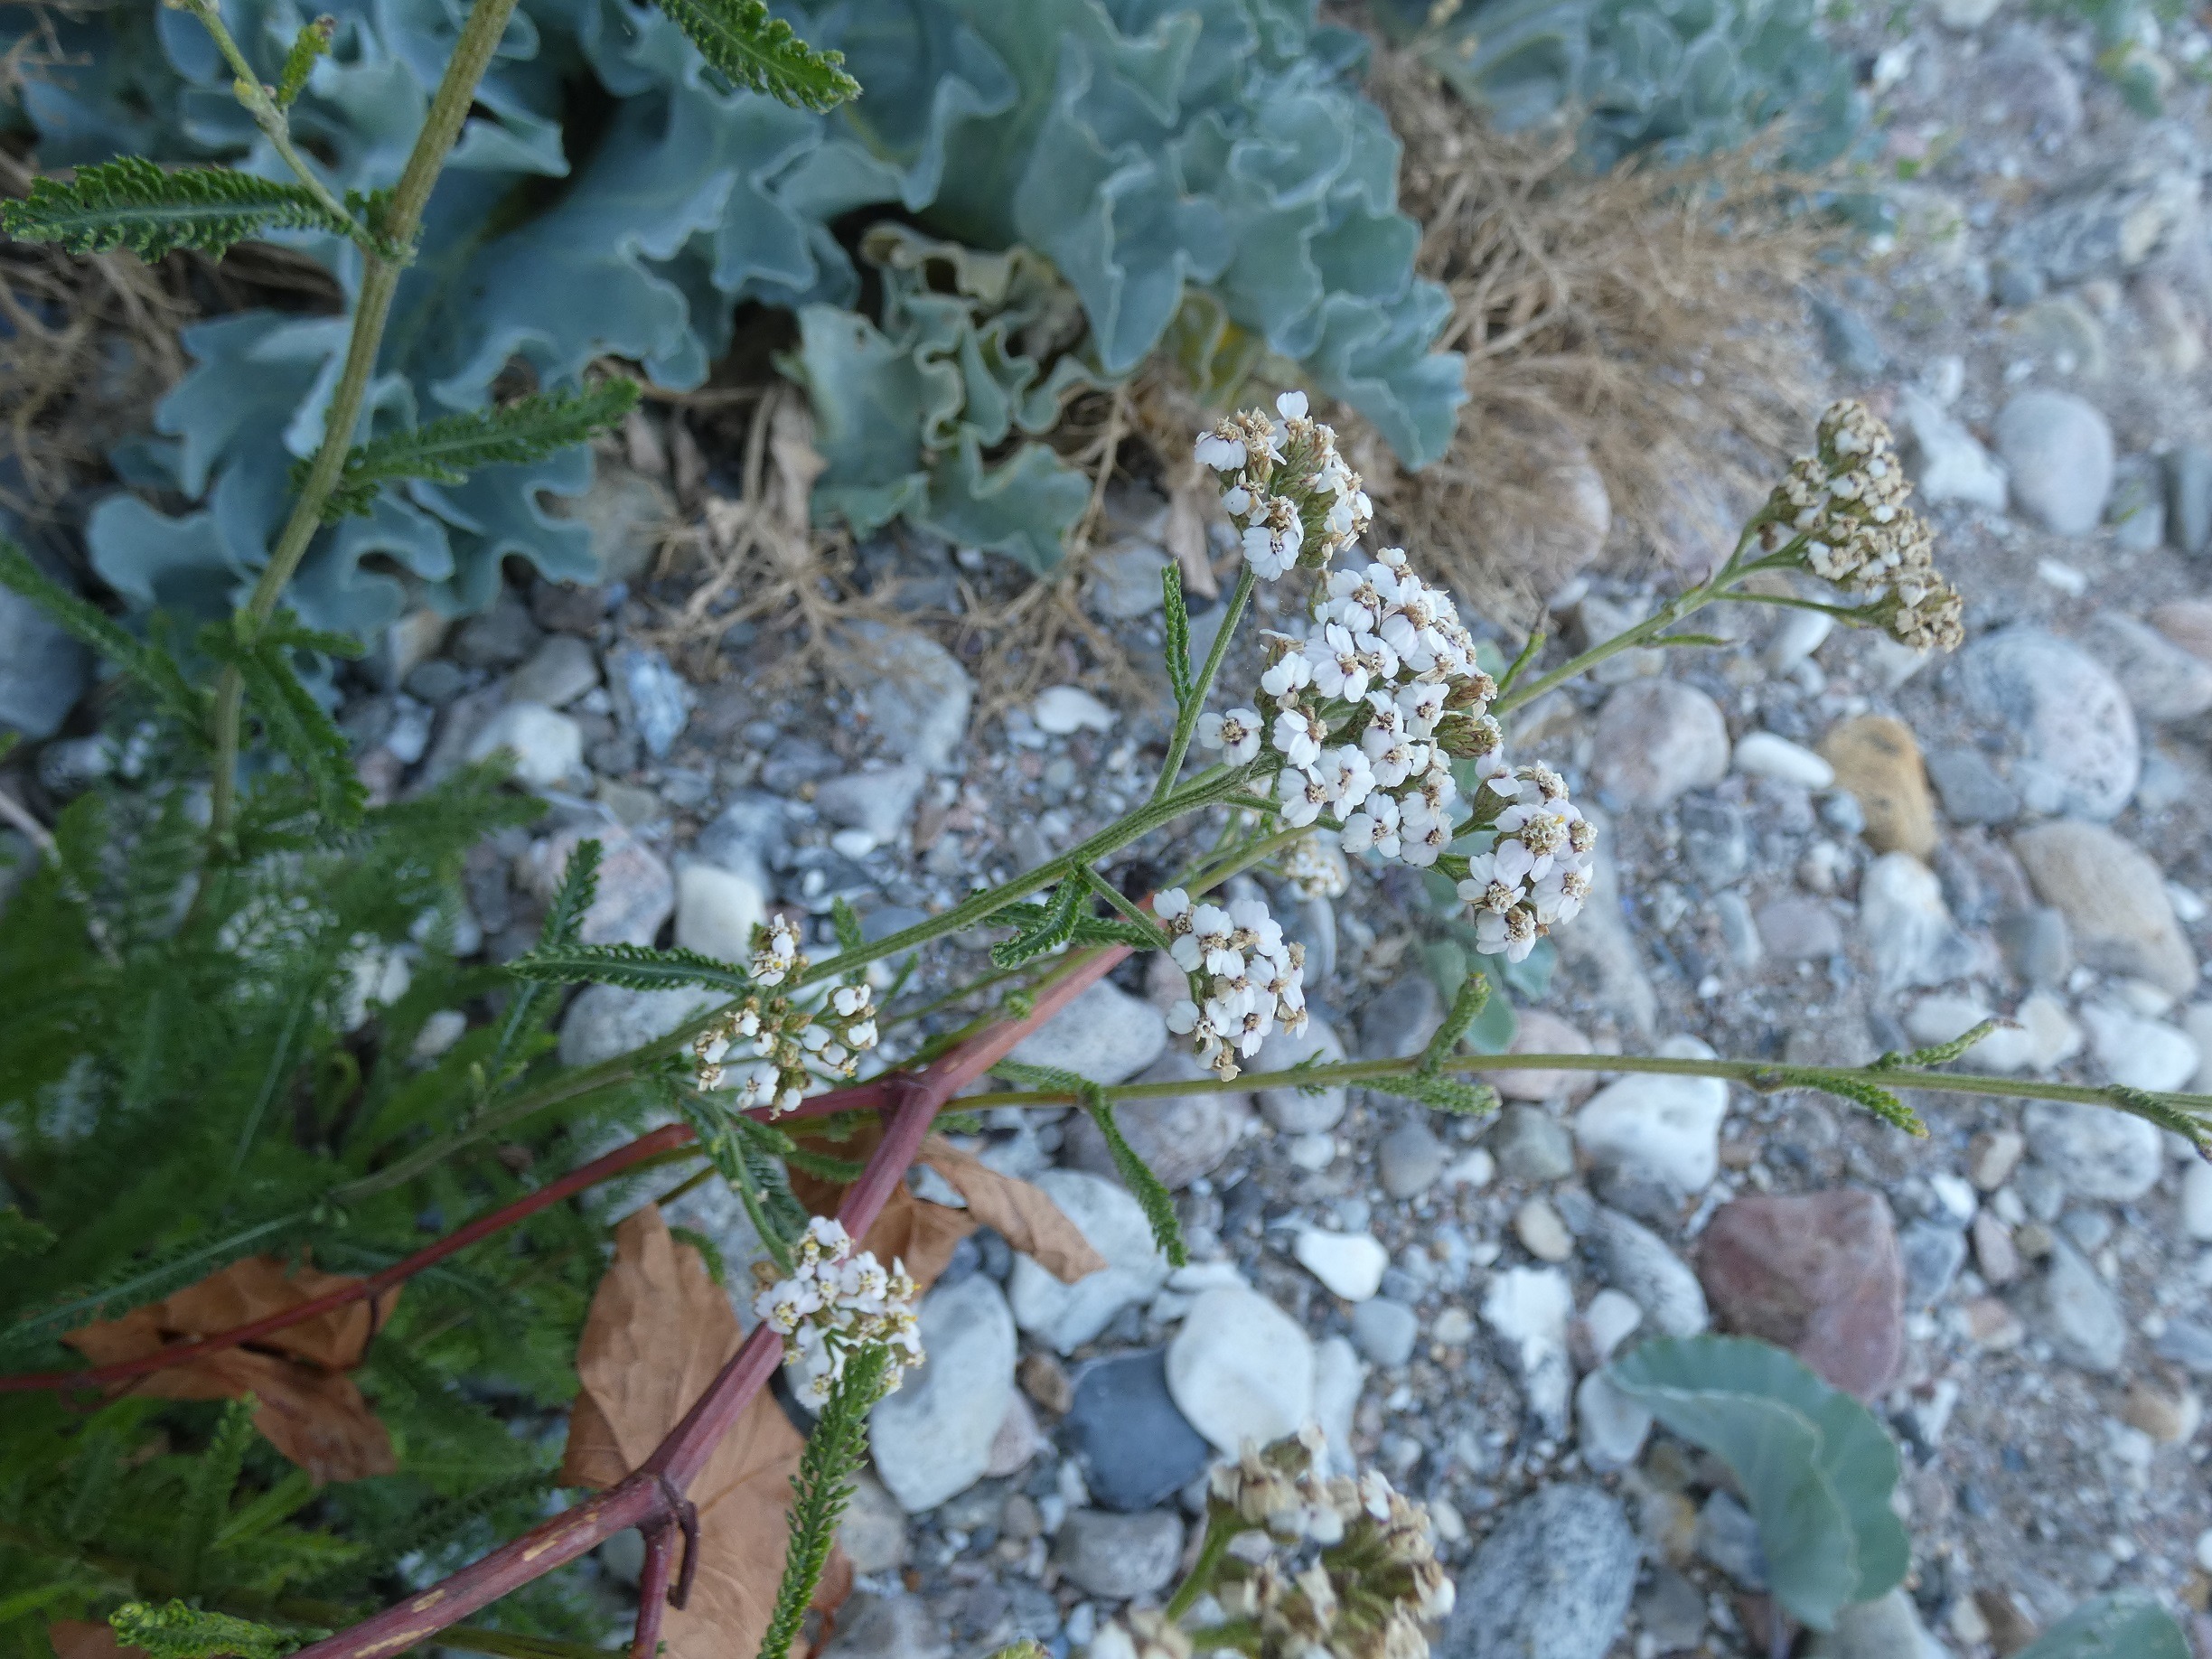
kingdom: Plantae
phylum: Tracheophyta
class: Magnoliopsida
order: Asterales
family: Asteraceae
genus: Achillea
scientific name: Achillea millefolium
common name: Almindelig røllike
